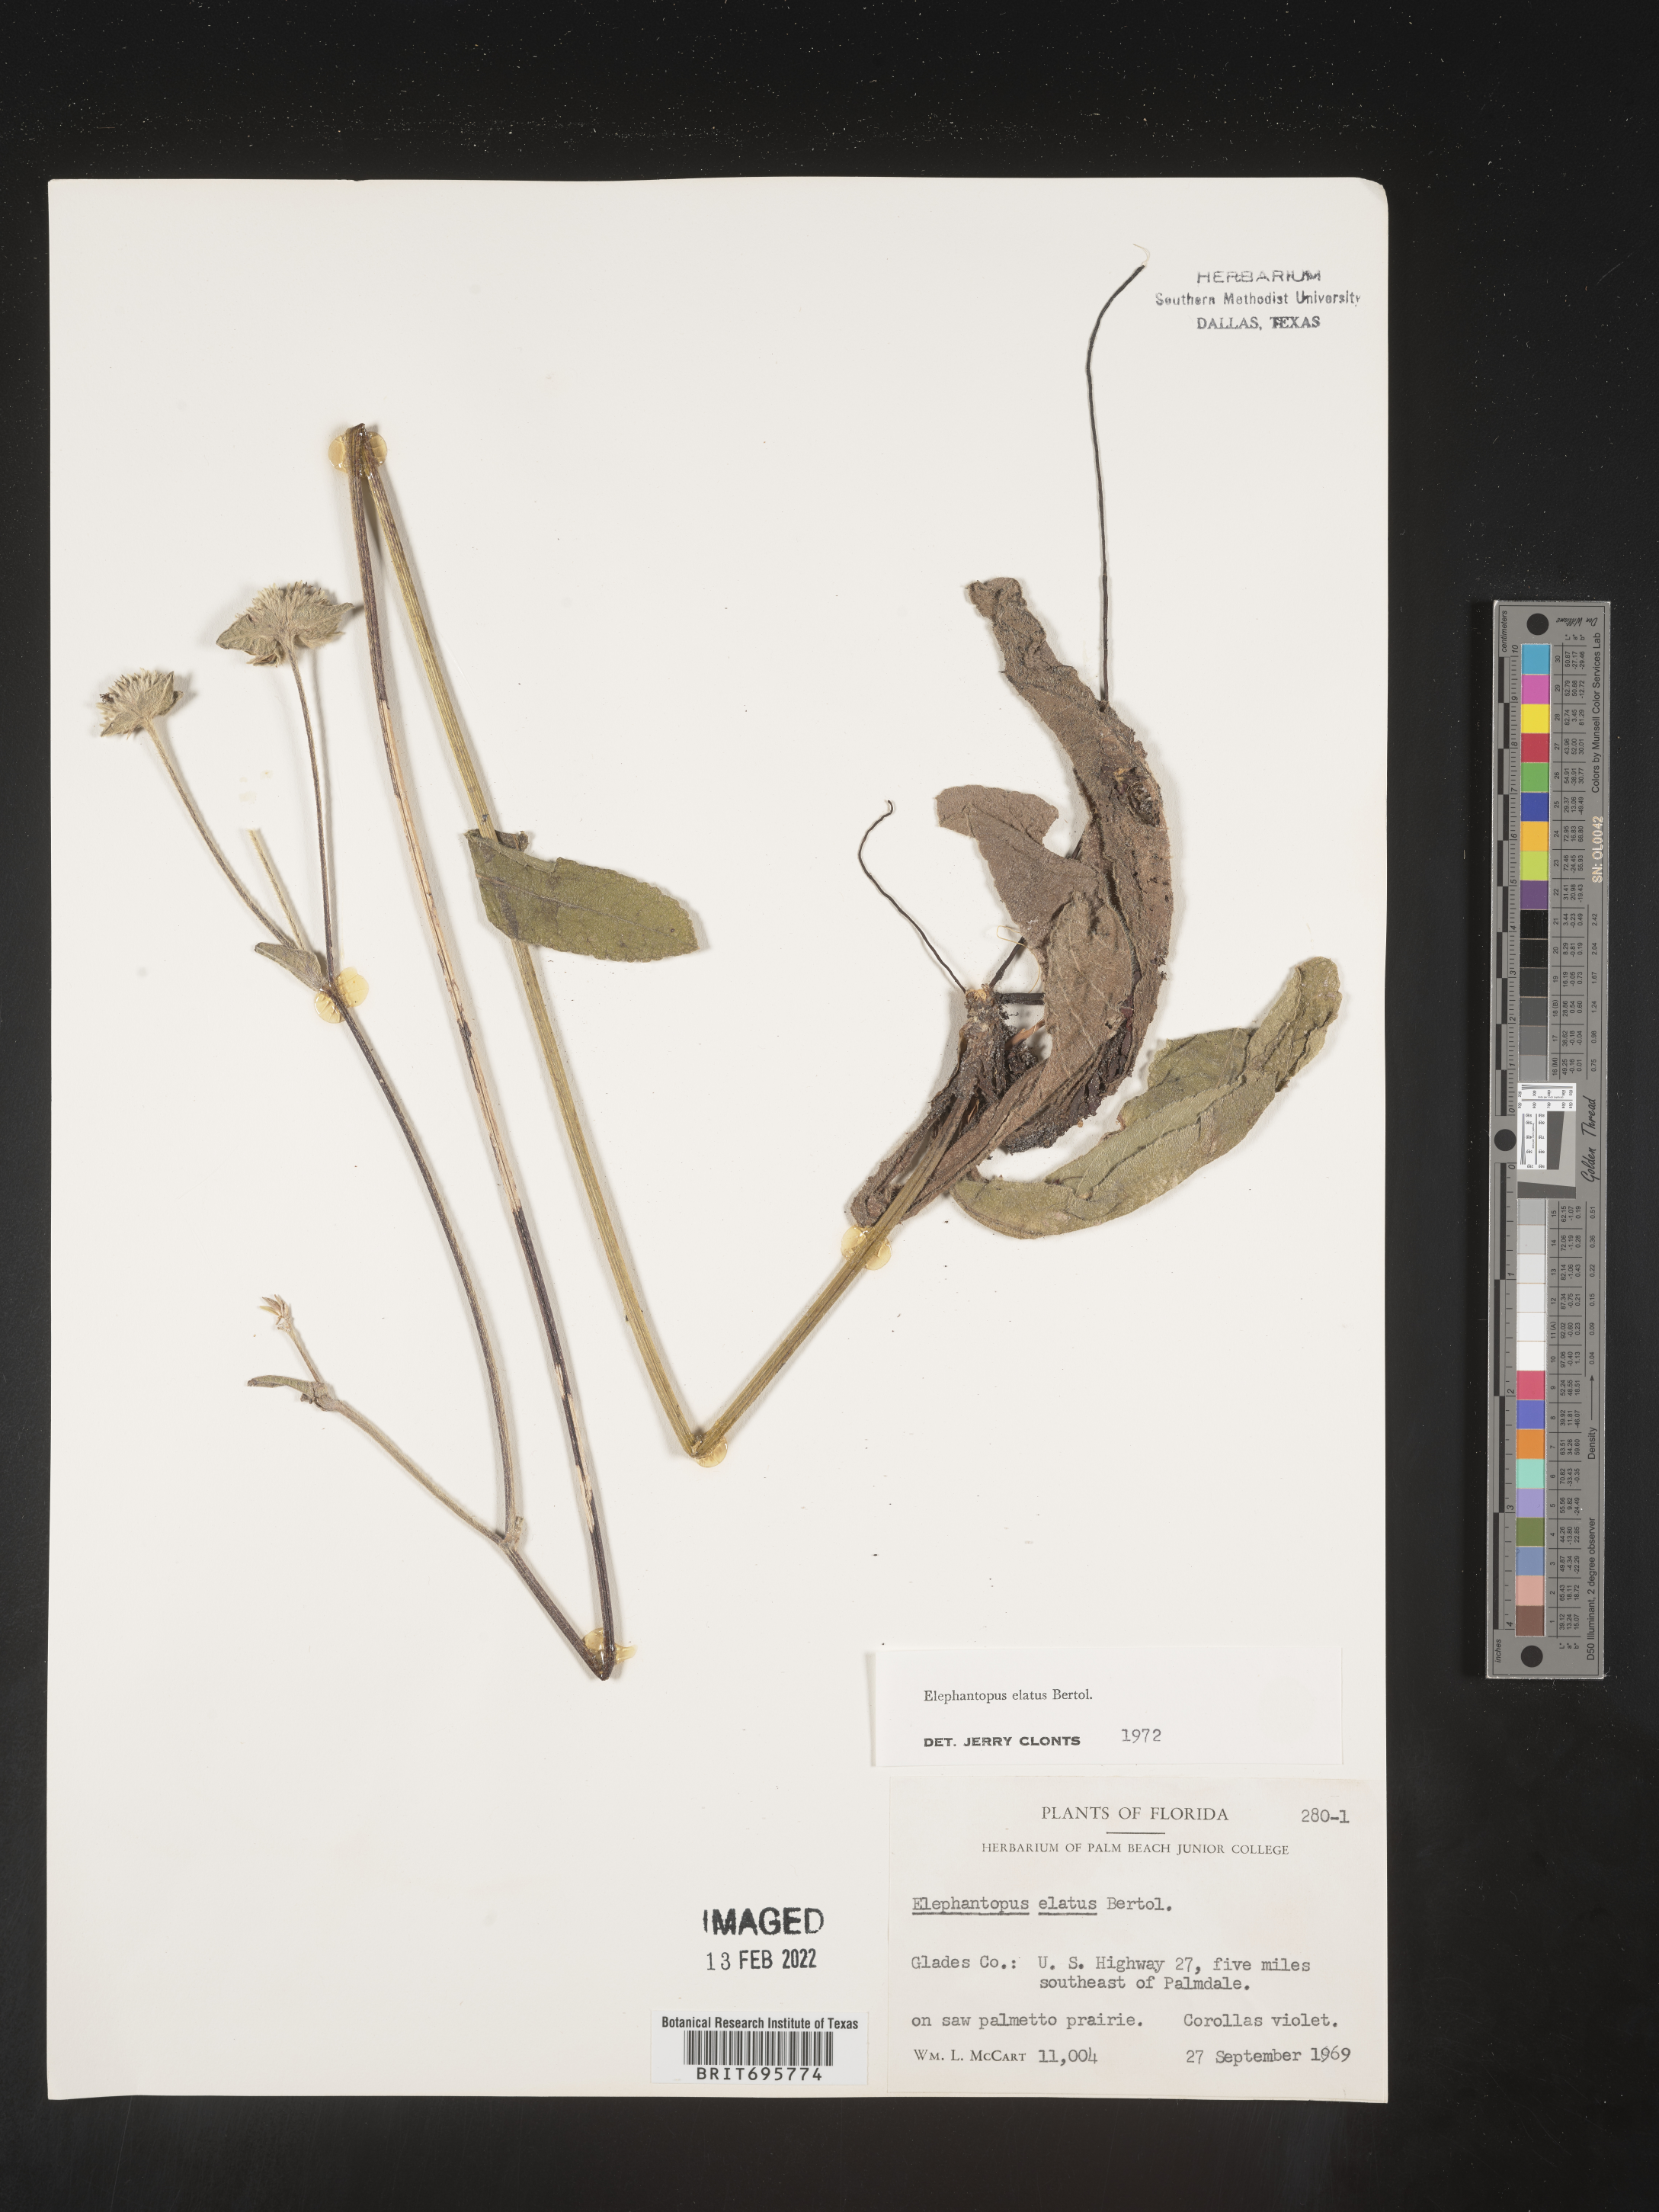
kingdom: Plantae
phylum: Tracheophyta
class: Magnoliopsida
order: Asterales
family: Asteraceae
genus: Elephantopus
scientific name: Elephantopus elatus
